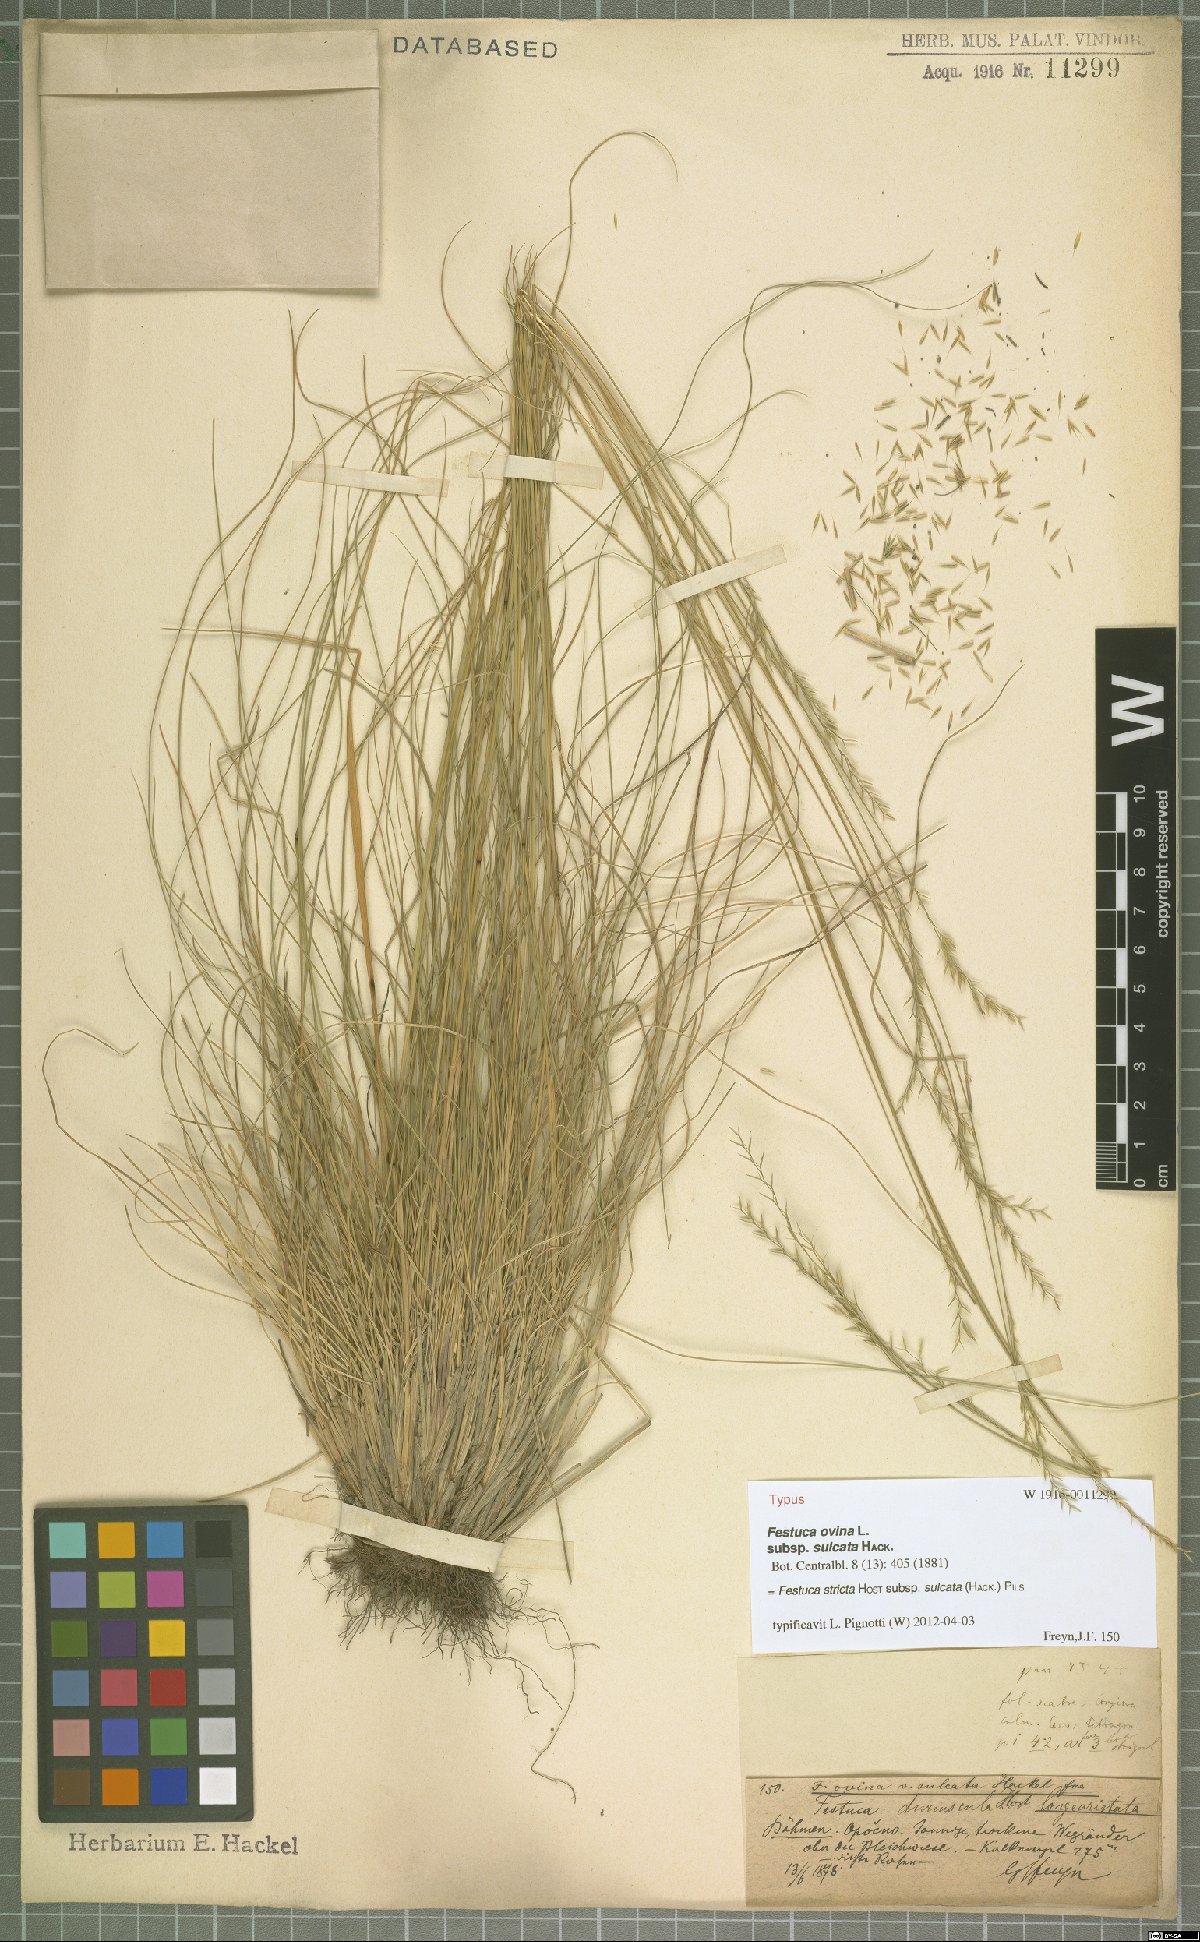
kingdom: Plantae
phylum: Tracheophyta
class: Liliopsida
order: Poales
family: Poaceae
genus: Festuca
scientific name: Festuca rupicola
